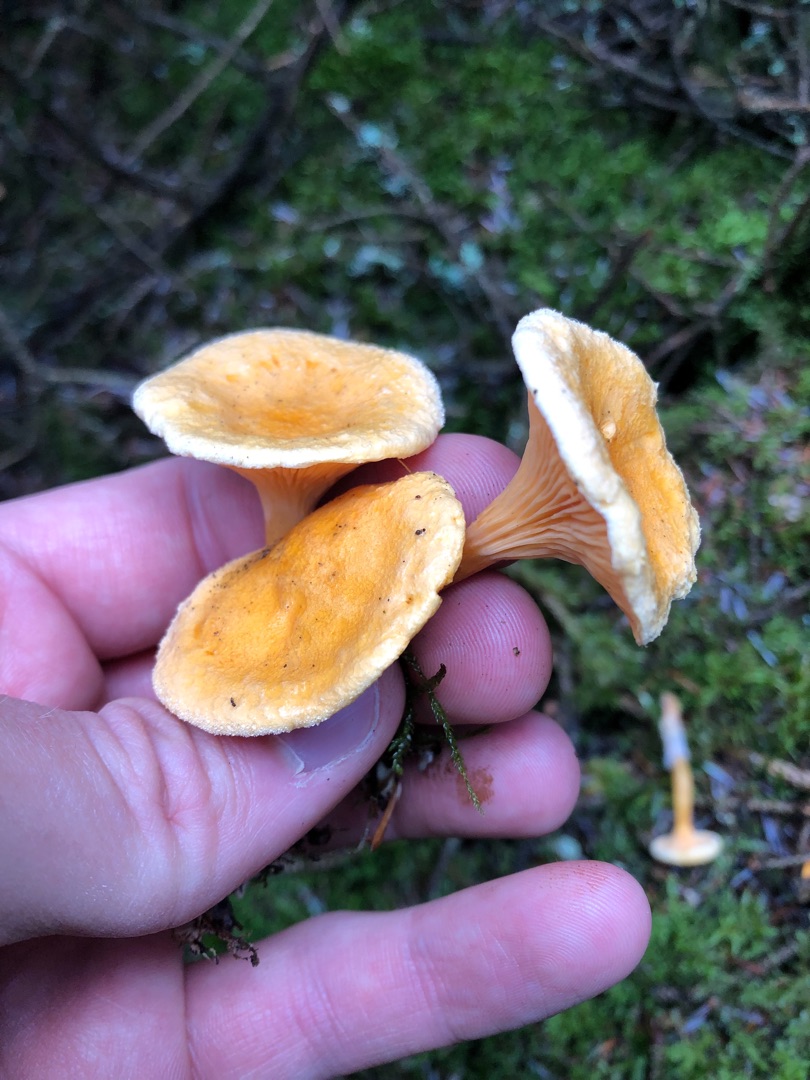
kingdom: Fungi
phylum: Basidiomycota
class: Agaricomycetes
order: Boletales
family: Hygrophoropsidaceae
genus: Hygrophoropsis
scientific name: Hygrophoropsis aurantiaca
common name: Almindelig orangekantarel
